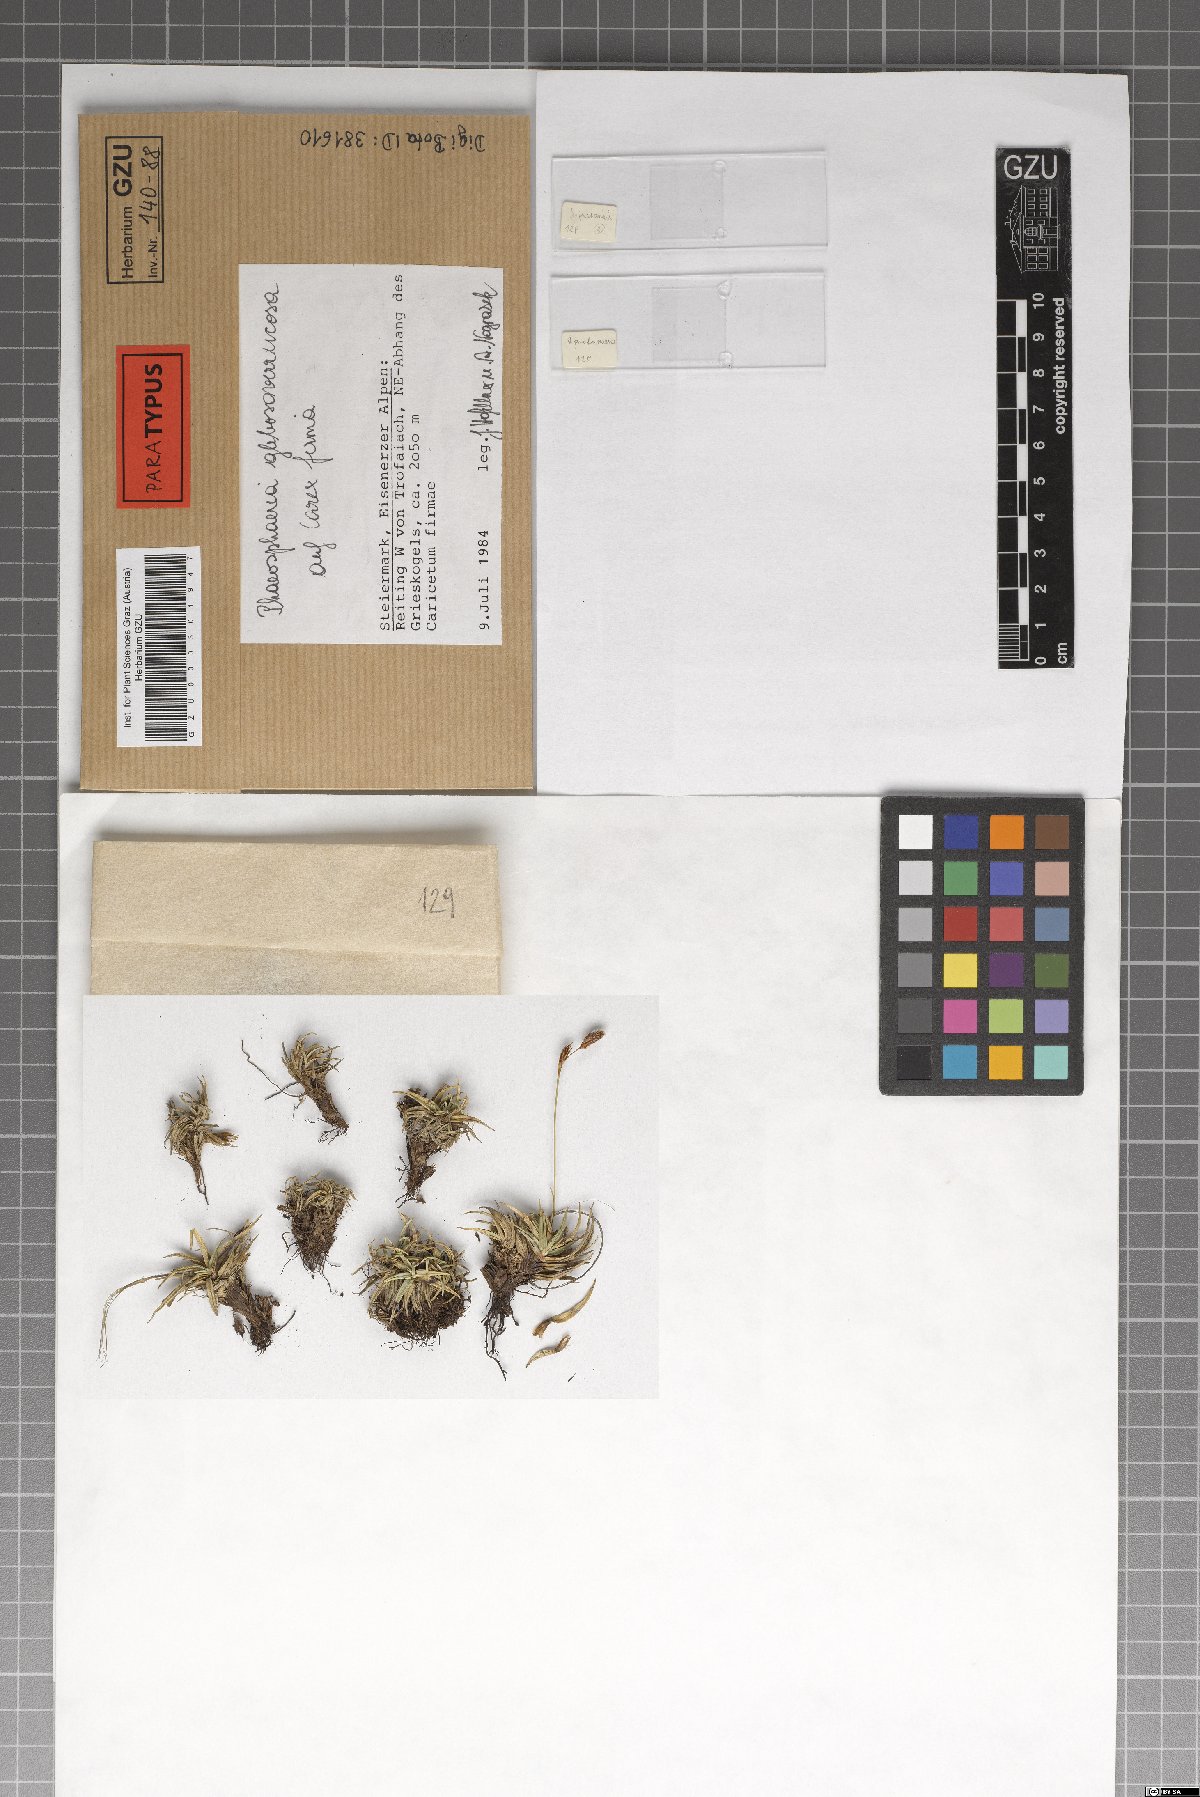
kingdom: Fungi
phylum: Ascomycota
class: Dothideomycetes
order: Pleosporales
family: Phaeosphaeriaceae
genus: Phaeosphaeria
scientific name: Phaeosphaeria glebosoverrucosa
